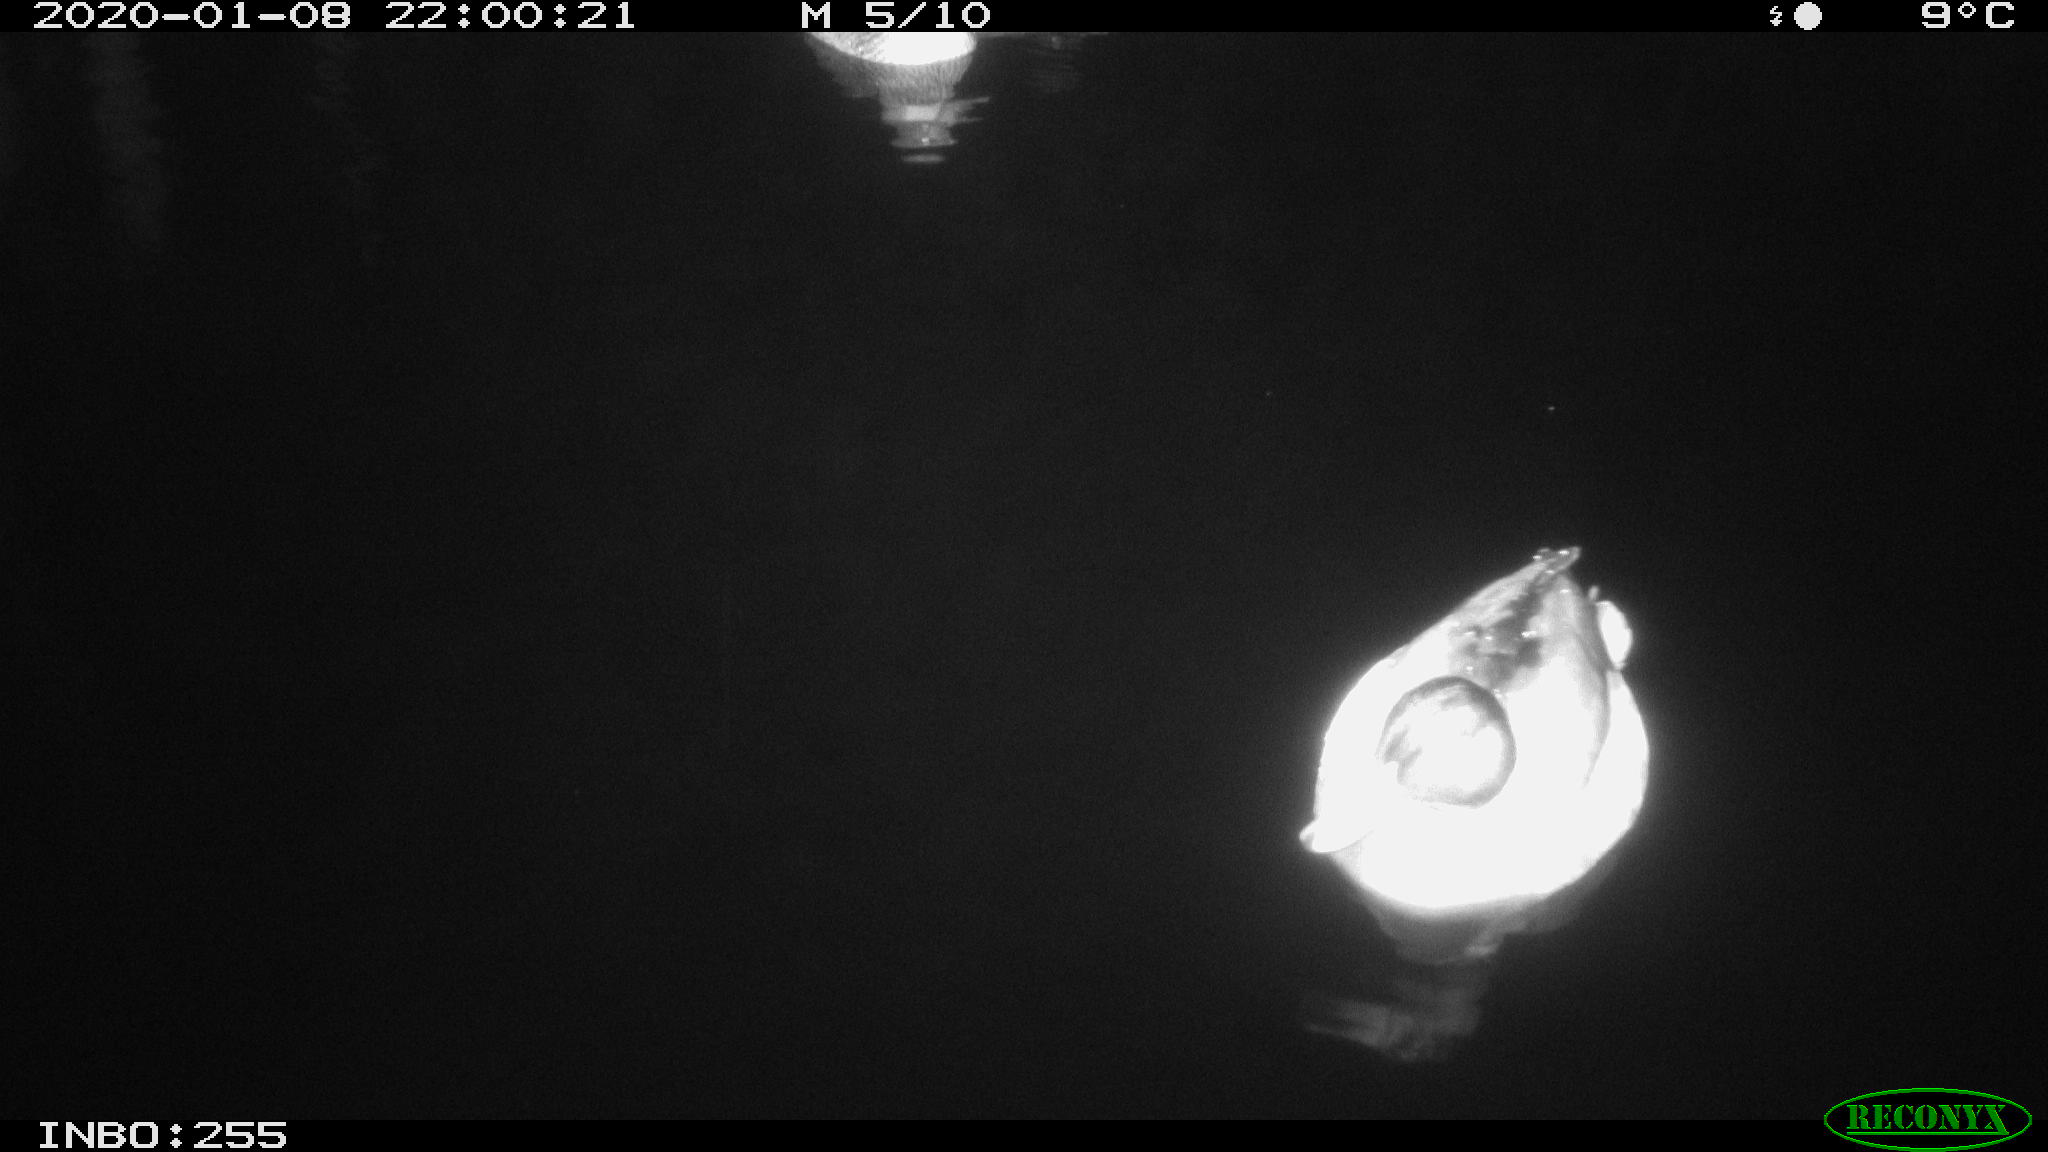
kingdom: Animalia
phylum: Chordata
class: Aves
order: Anseriformes
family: Anatidae
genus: Anas
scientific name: Anas platyrhynchos
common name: Mallard
